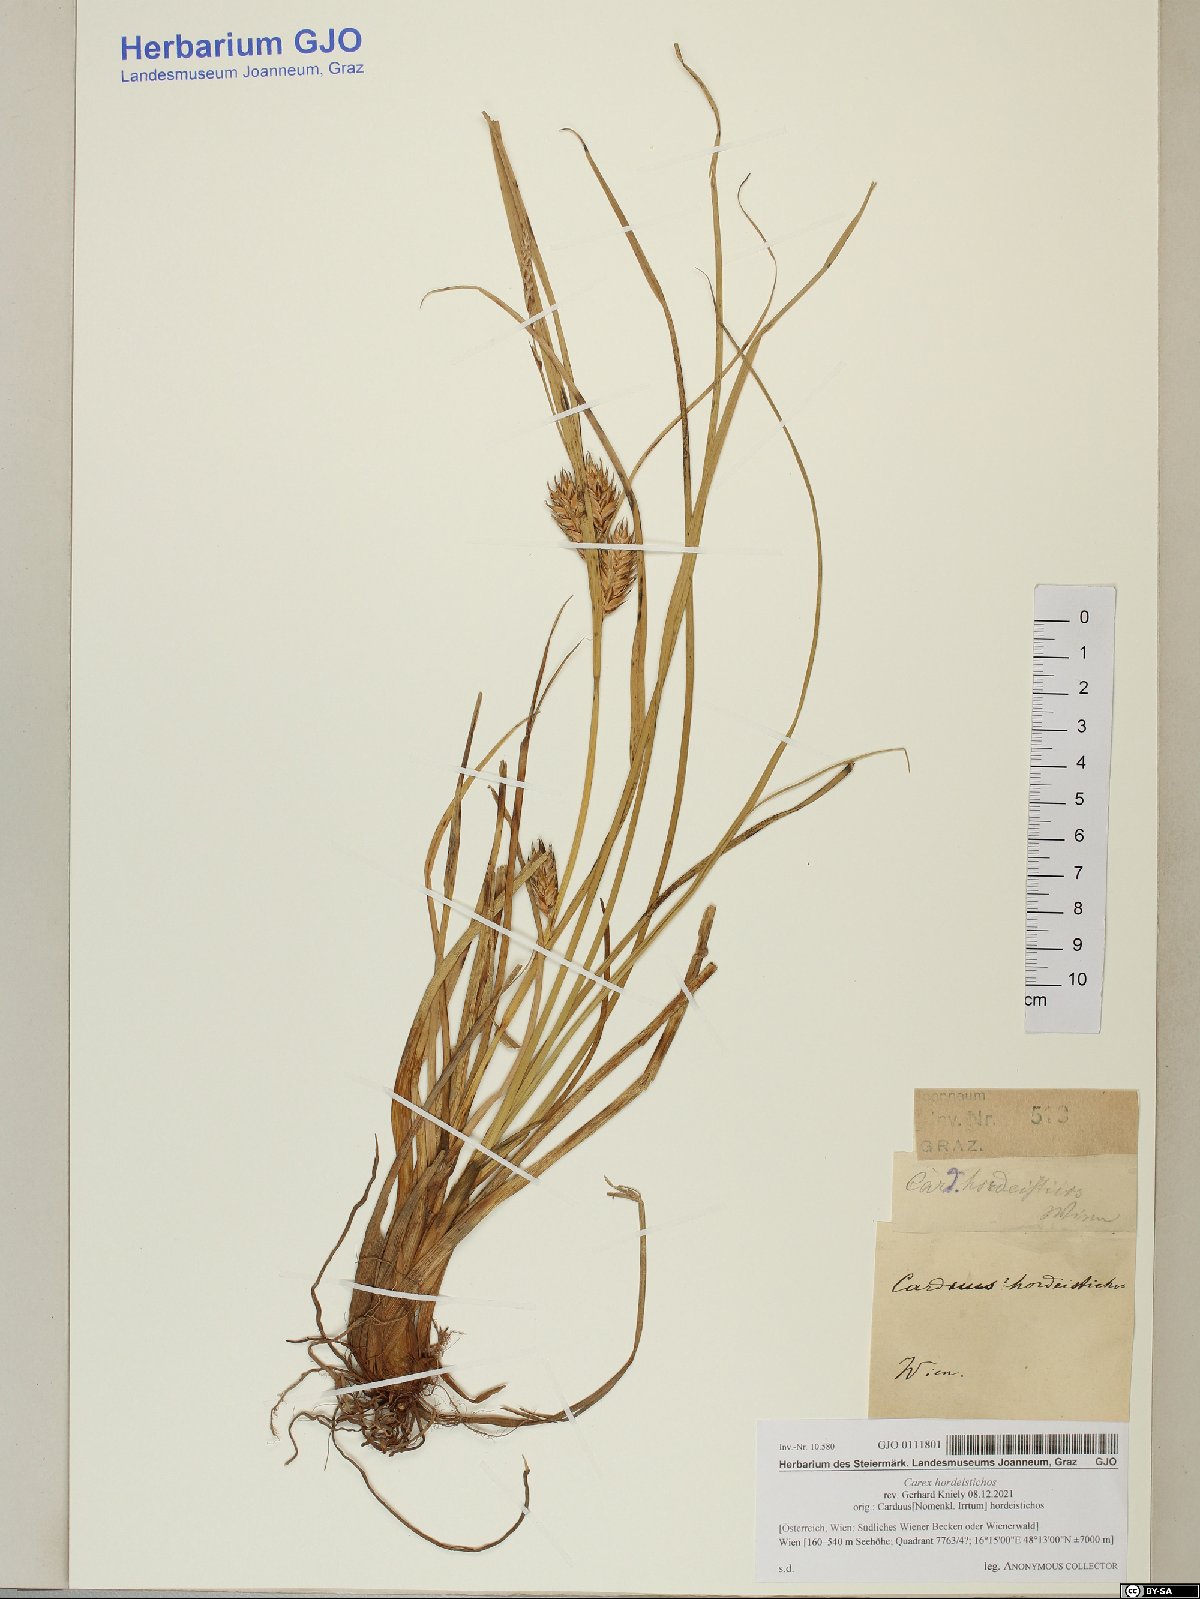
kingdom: Plantae
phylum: Tracheophyta
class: Liliopsida
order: Poales
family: Cyperaceae
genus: Carex
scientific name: Carex hordeistichos
